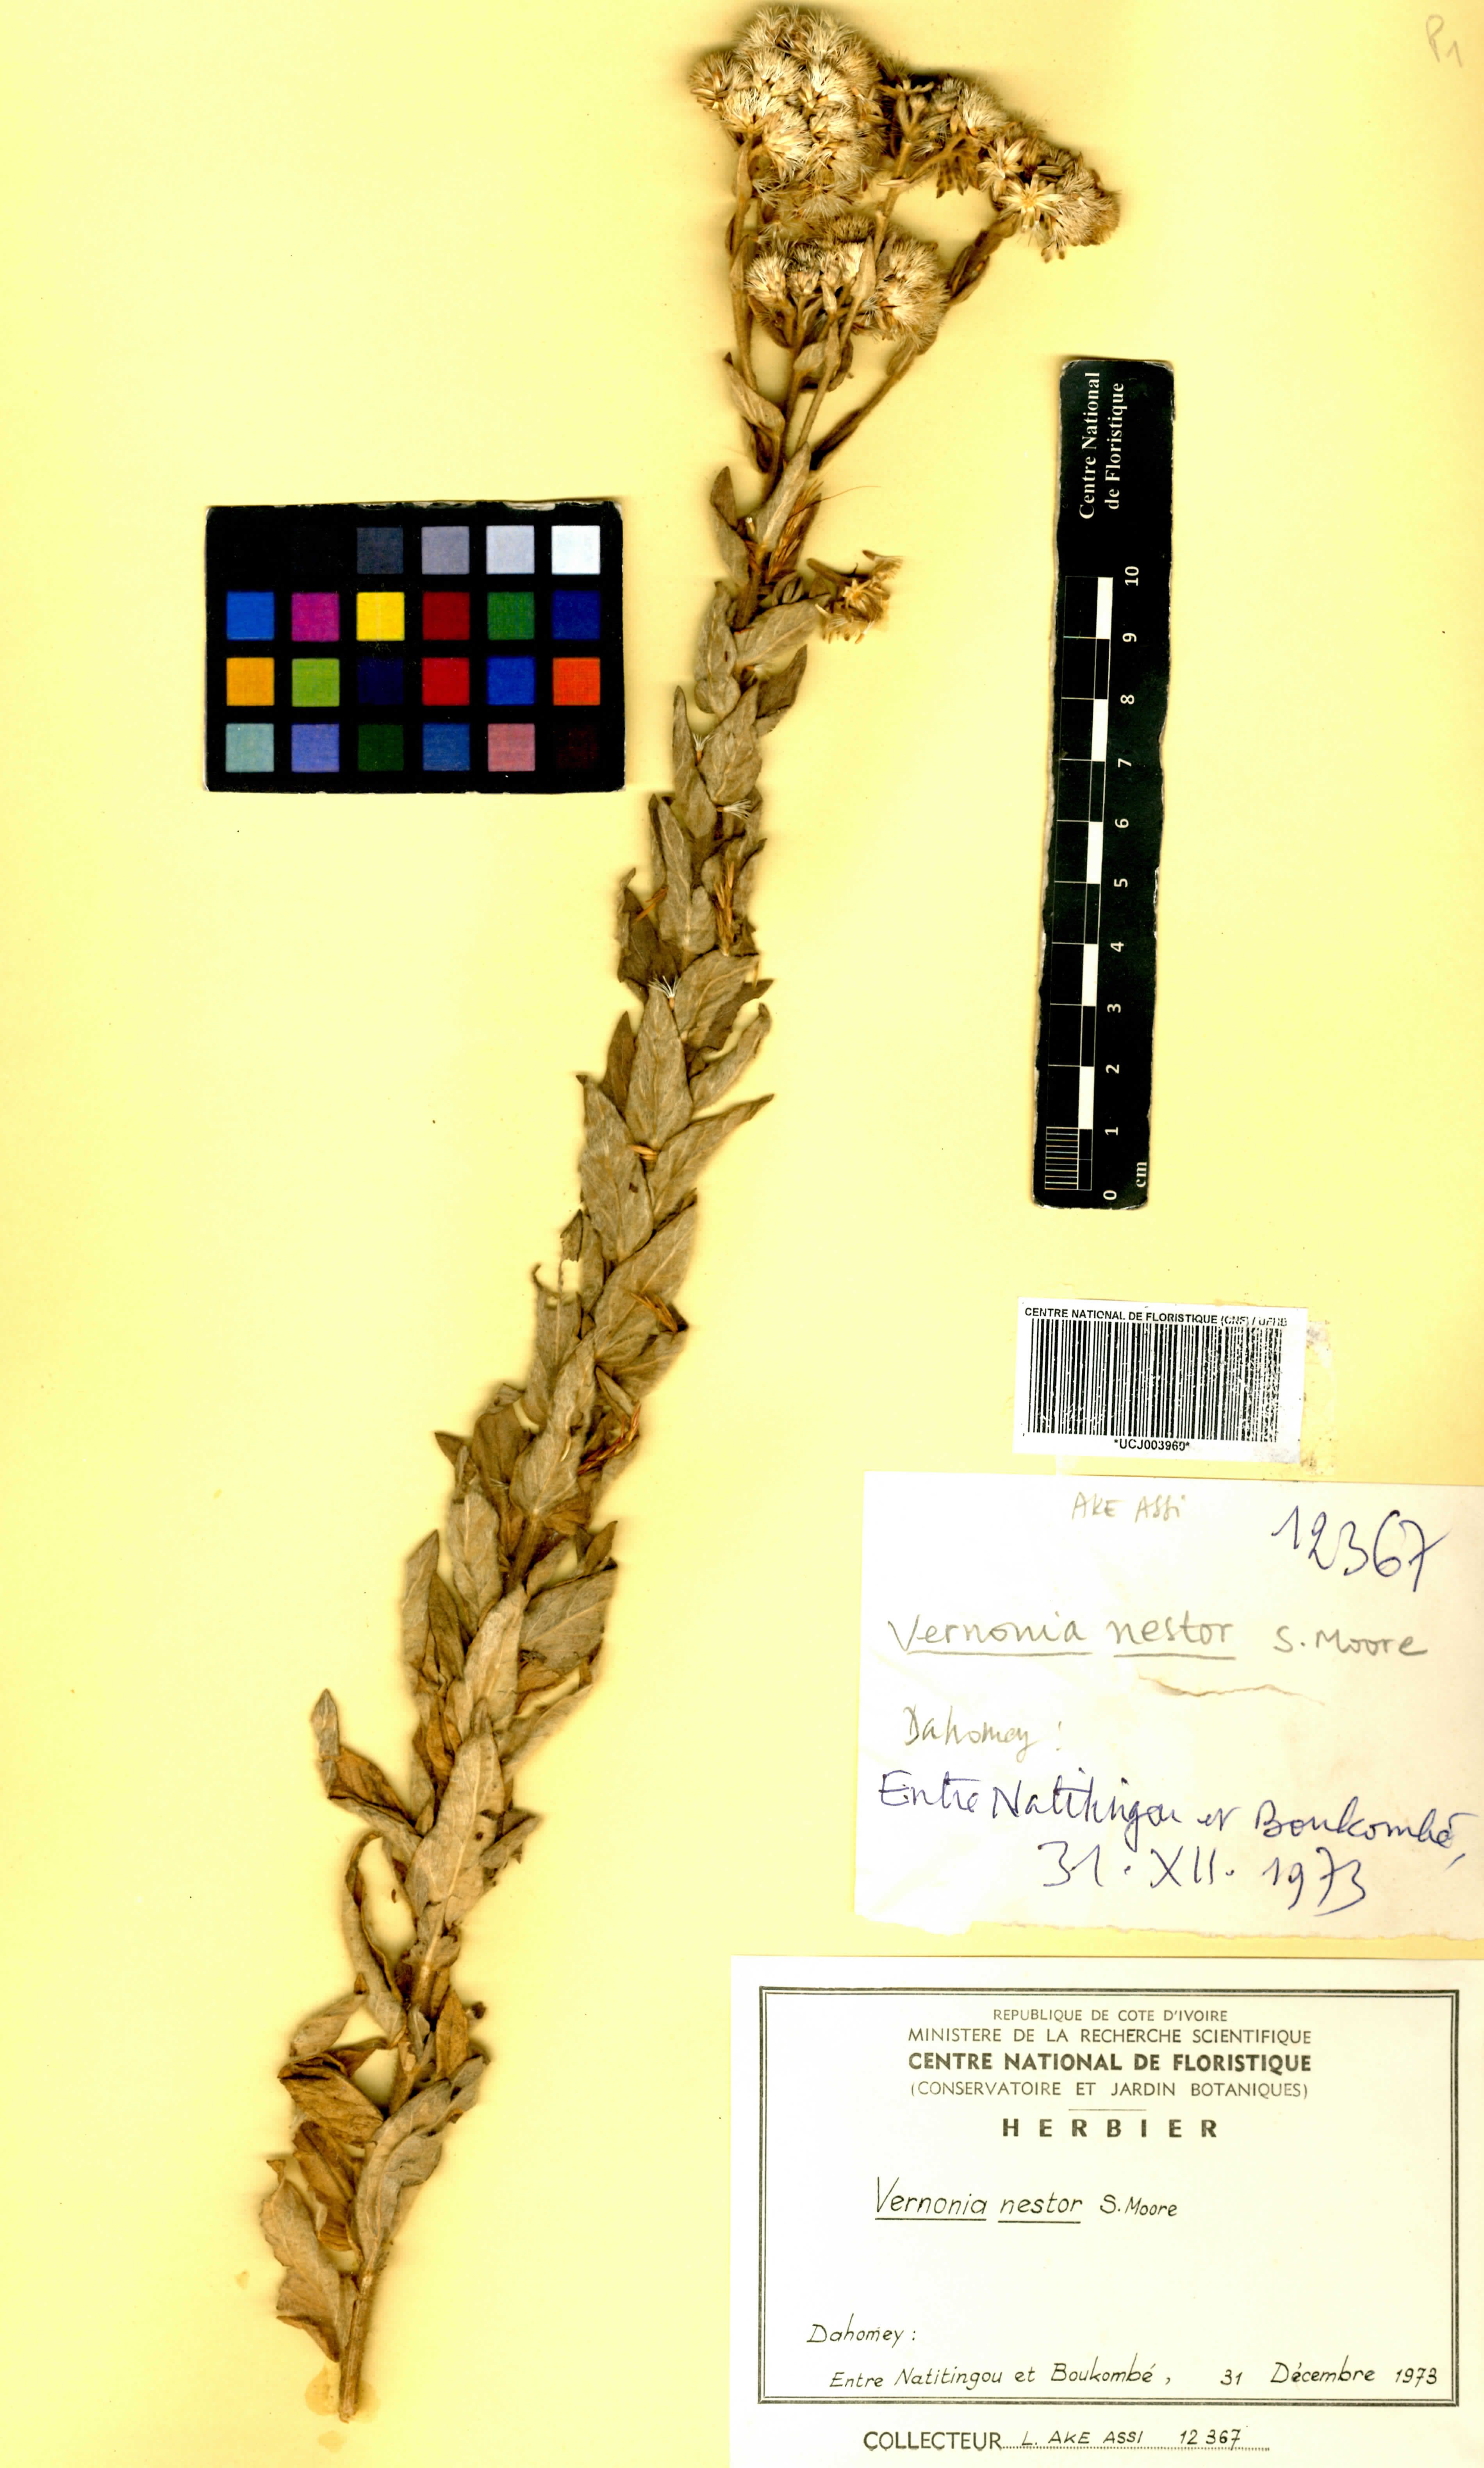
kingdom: Plantae
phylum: Tracheophyta
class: Magnoliopsida
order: Asterales
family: Asteraceae
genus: Linzia
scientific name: Linzia nigritiana
